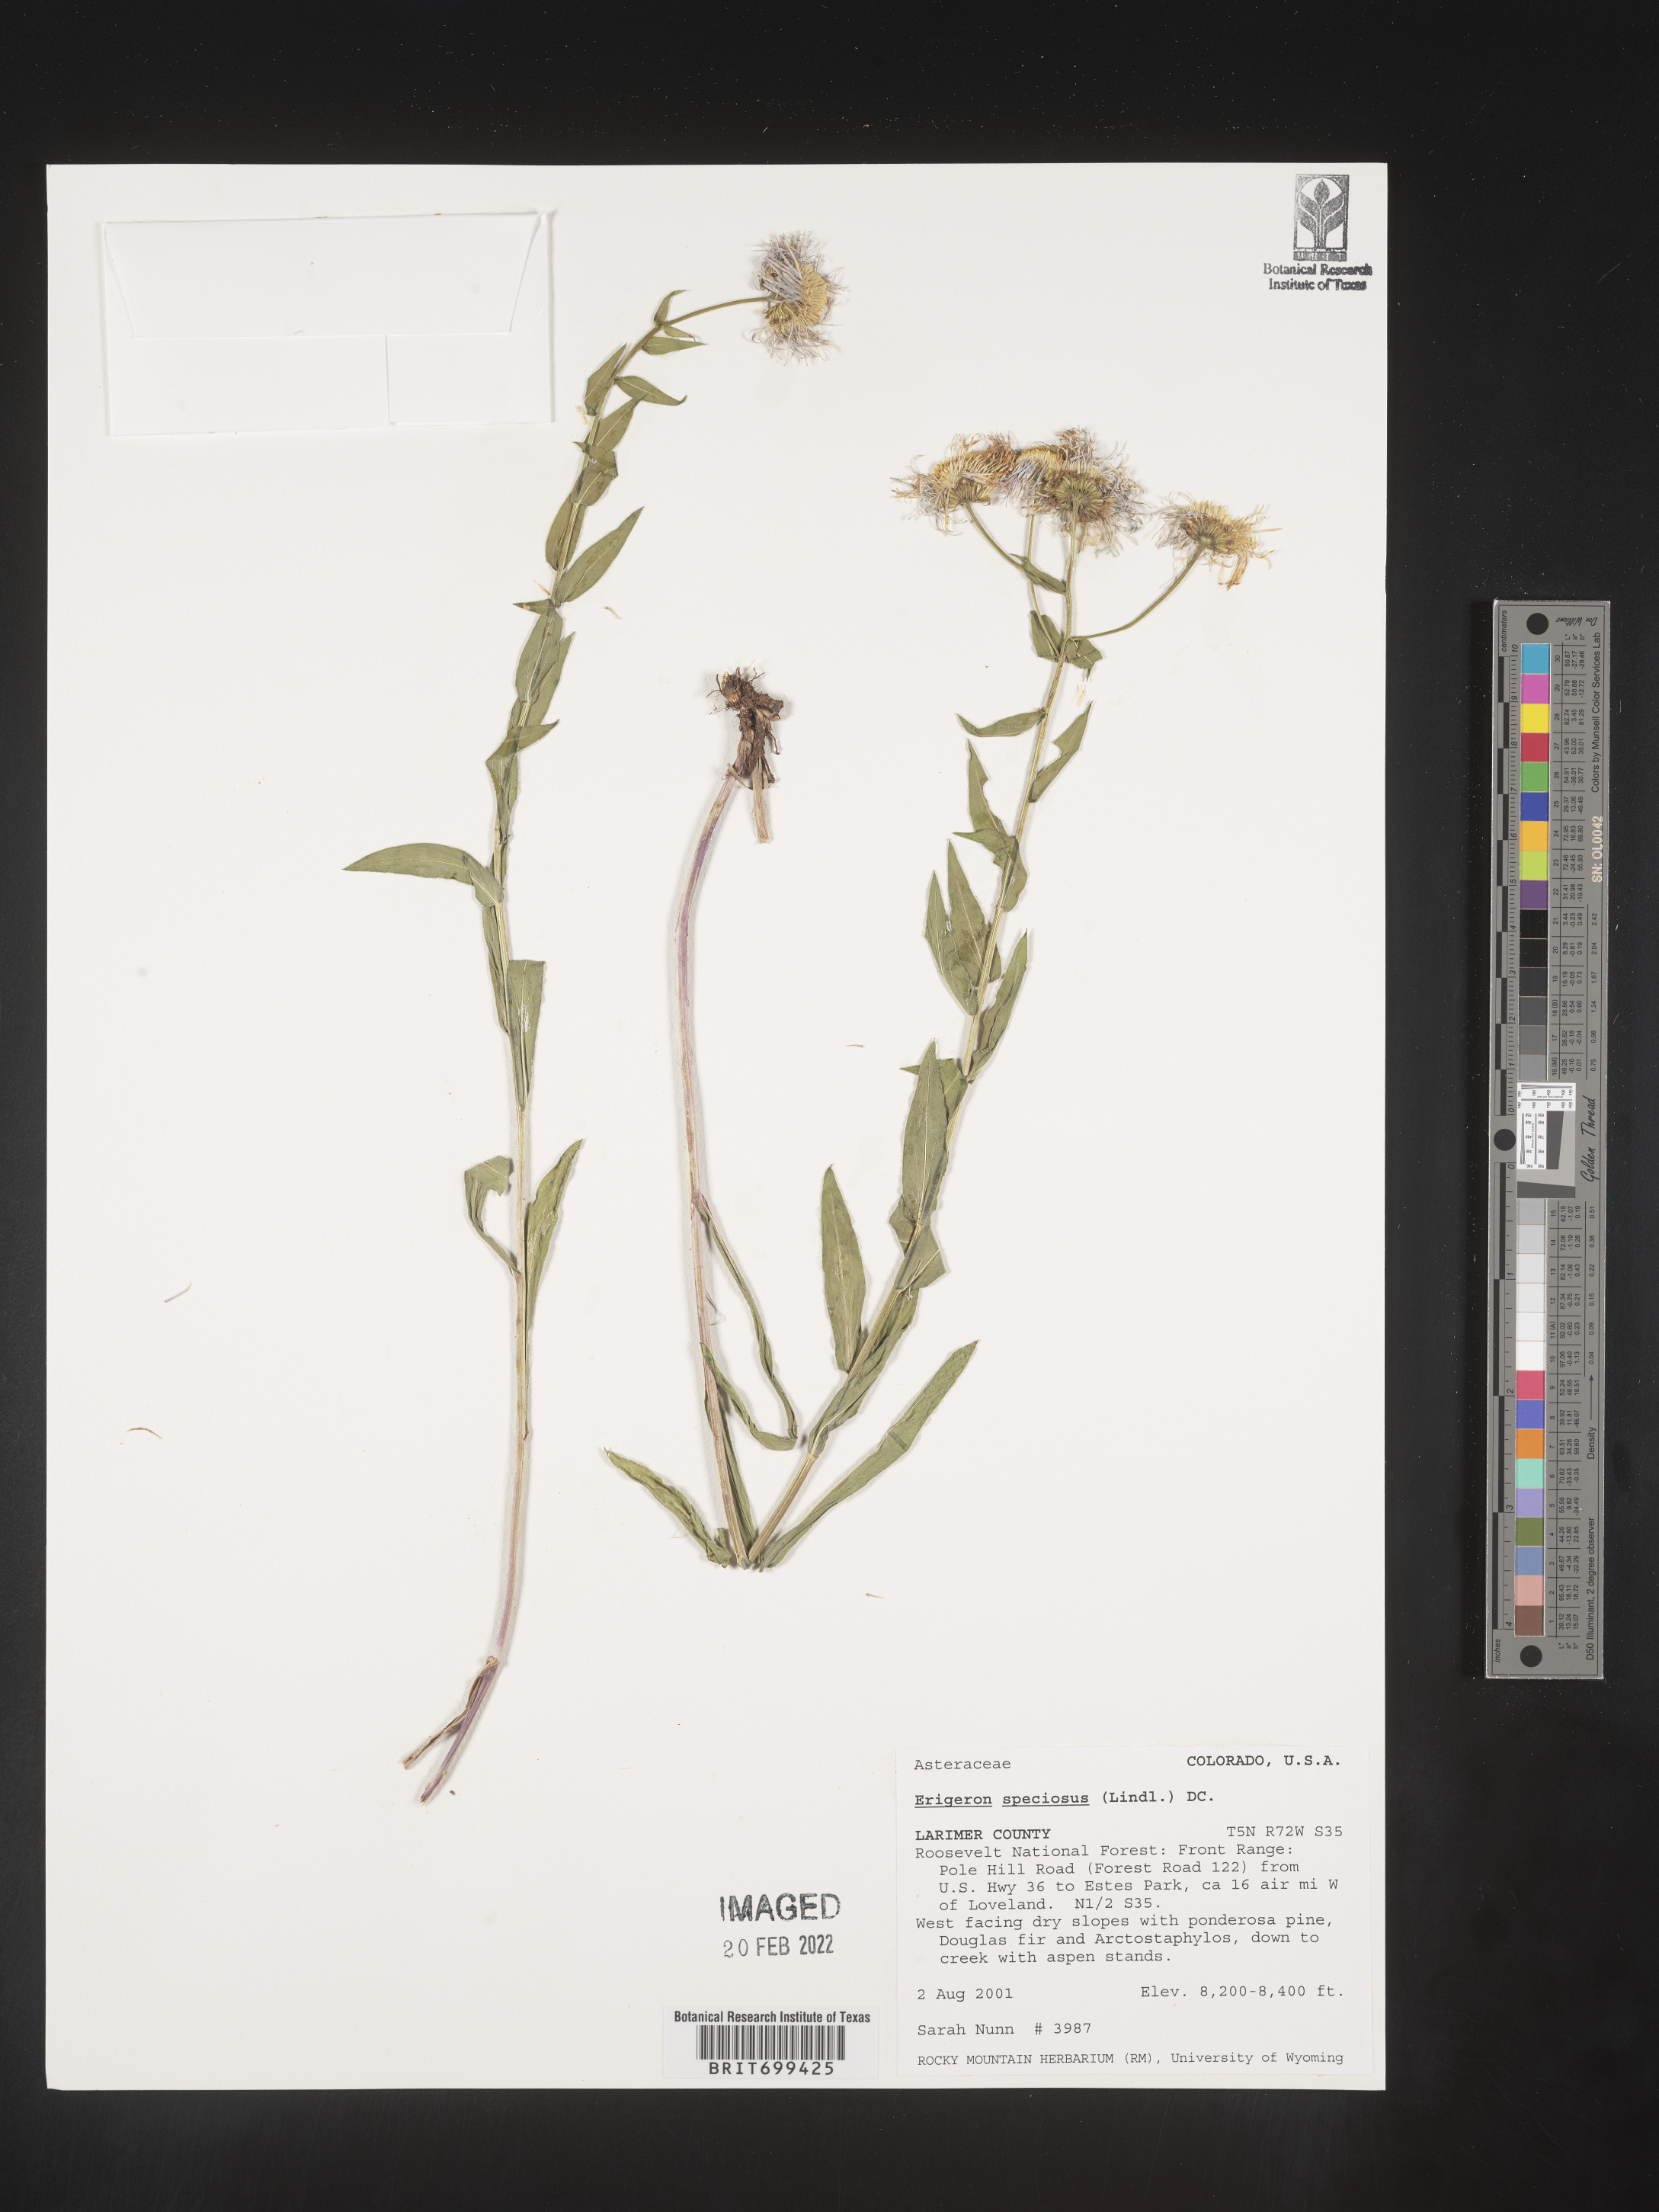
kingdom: Plantae
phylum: Tracheophyta
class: Magnoliopsida
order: Asterales
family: Asteraceae
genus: Erigeron
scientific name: Erigeron speciosus
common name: Aspen fleabane
